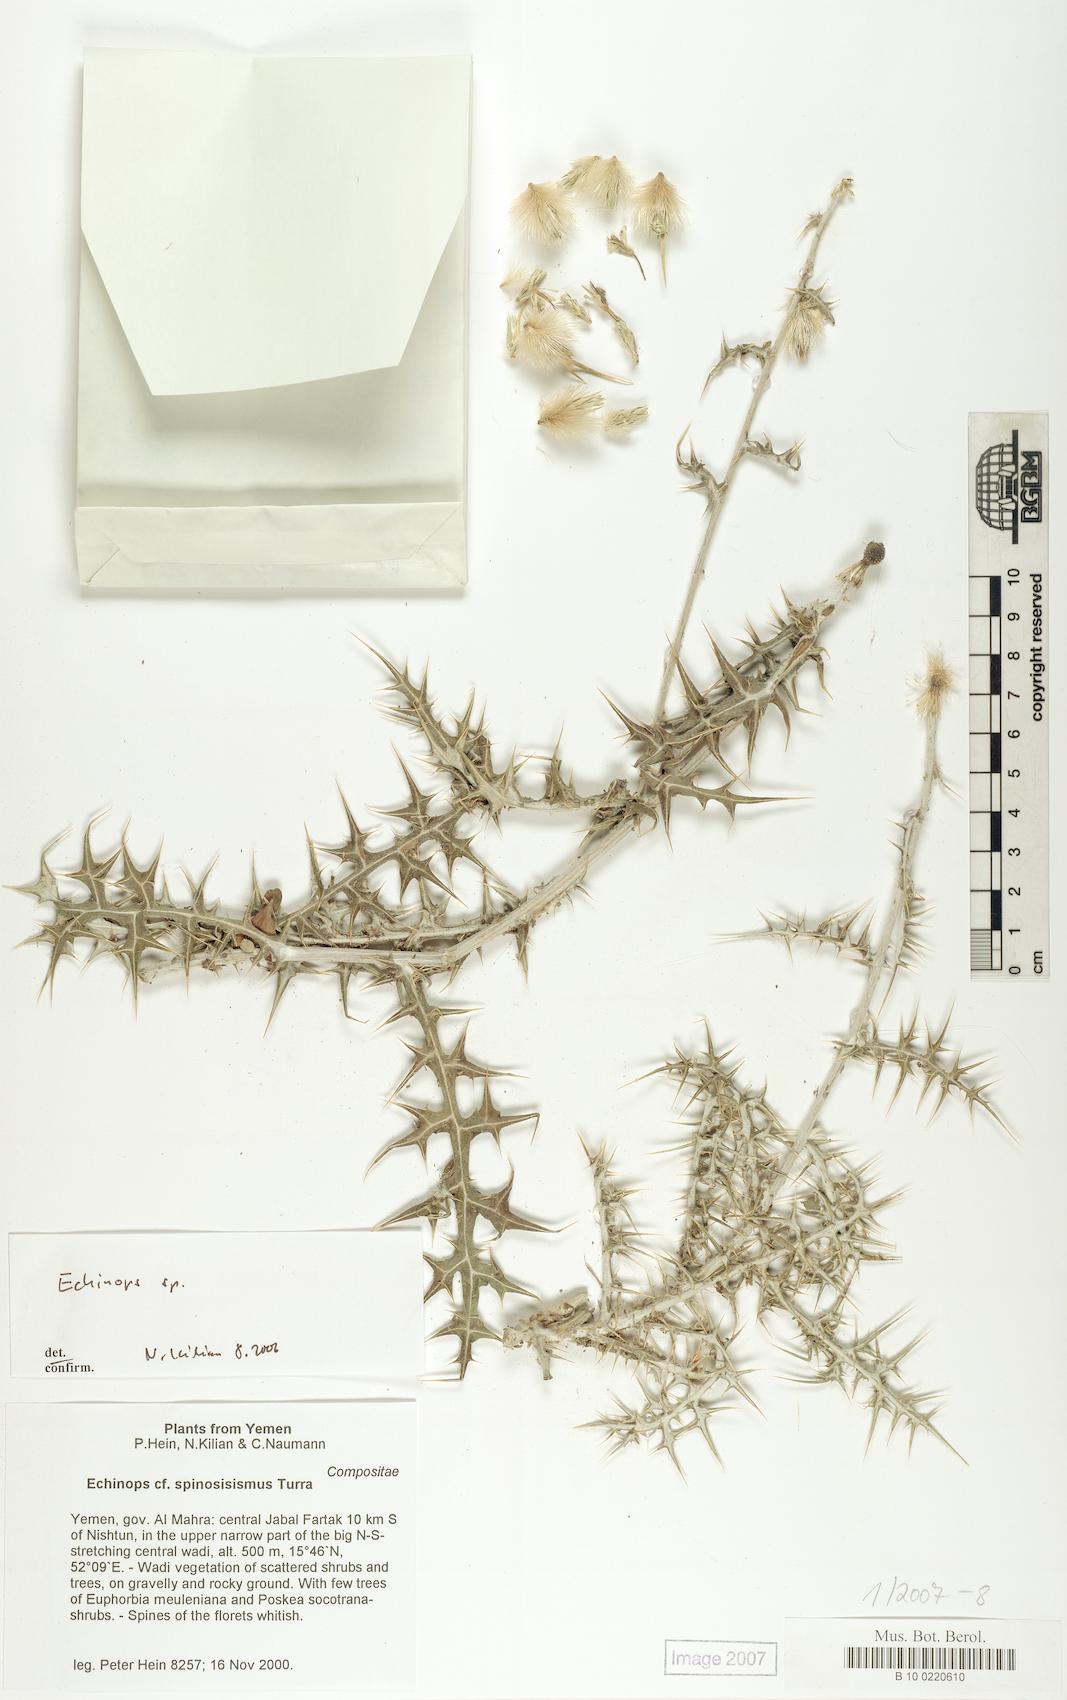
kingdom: Plantae
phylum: Tracheophyta
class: Magnoliopsida
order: Caryophyllales
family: Caryophyllaceae
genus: Stellaria
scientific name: Stellaria apetala
